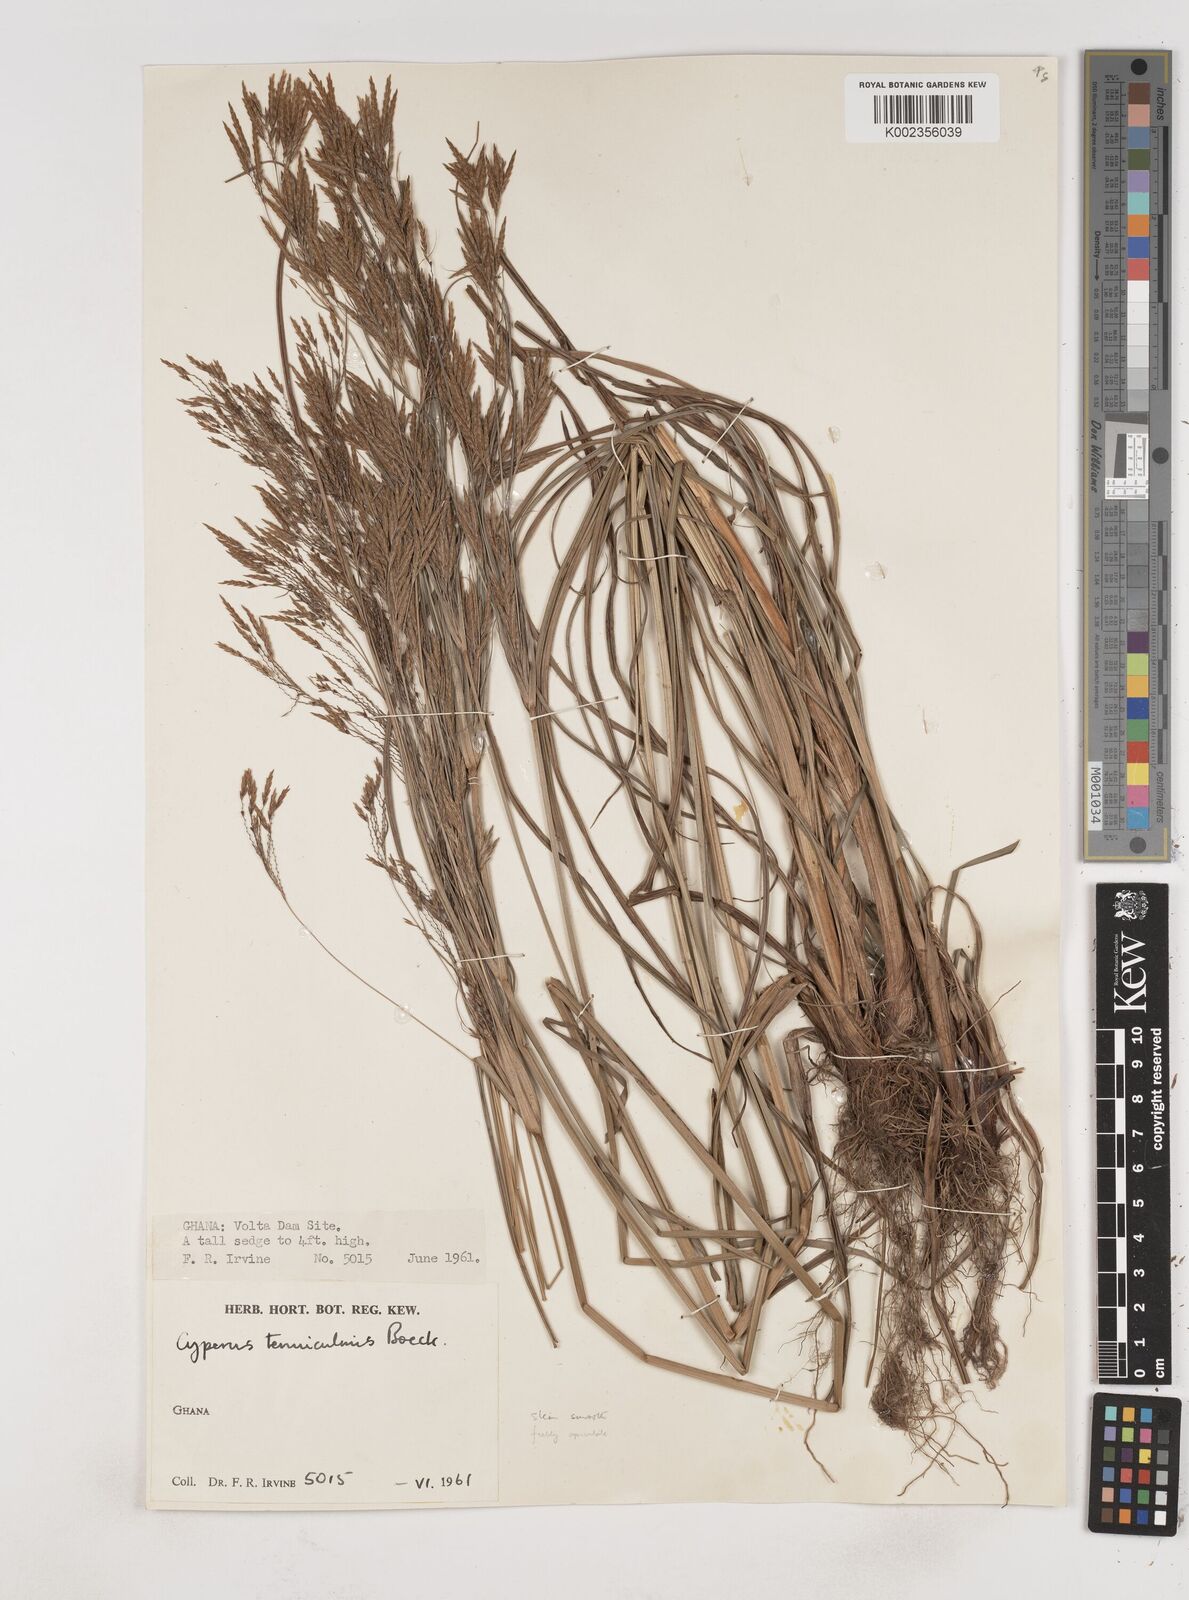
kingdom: Plantae
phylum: Tracheophyta
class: Liliopsida
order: Poales
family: Cyperaceae
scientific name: Cyperaceae
